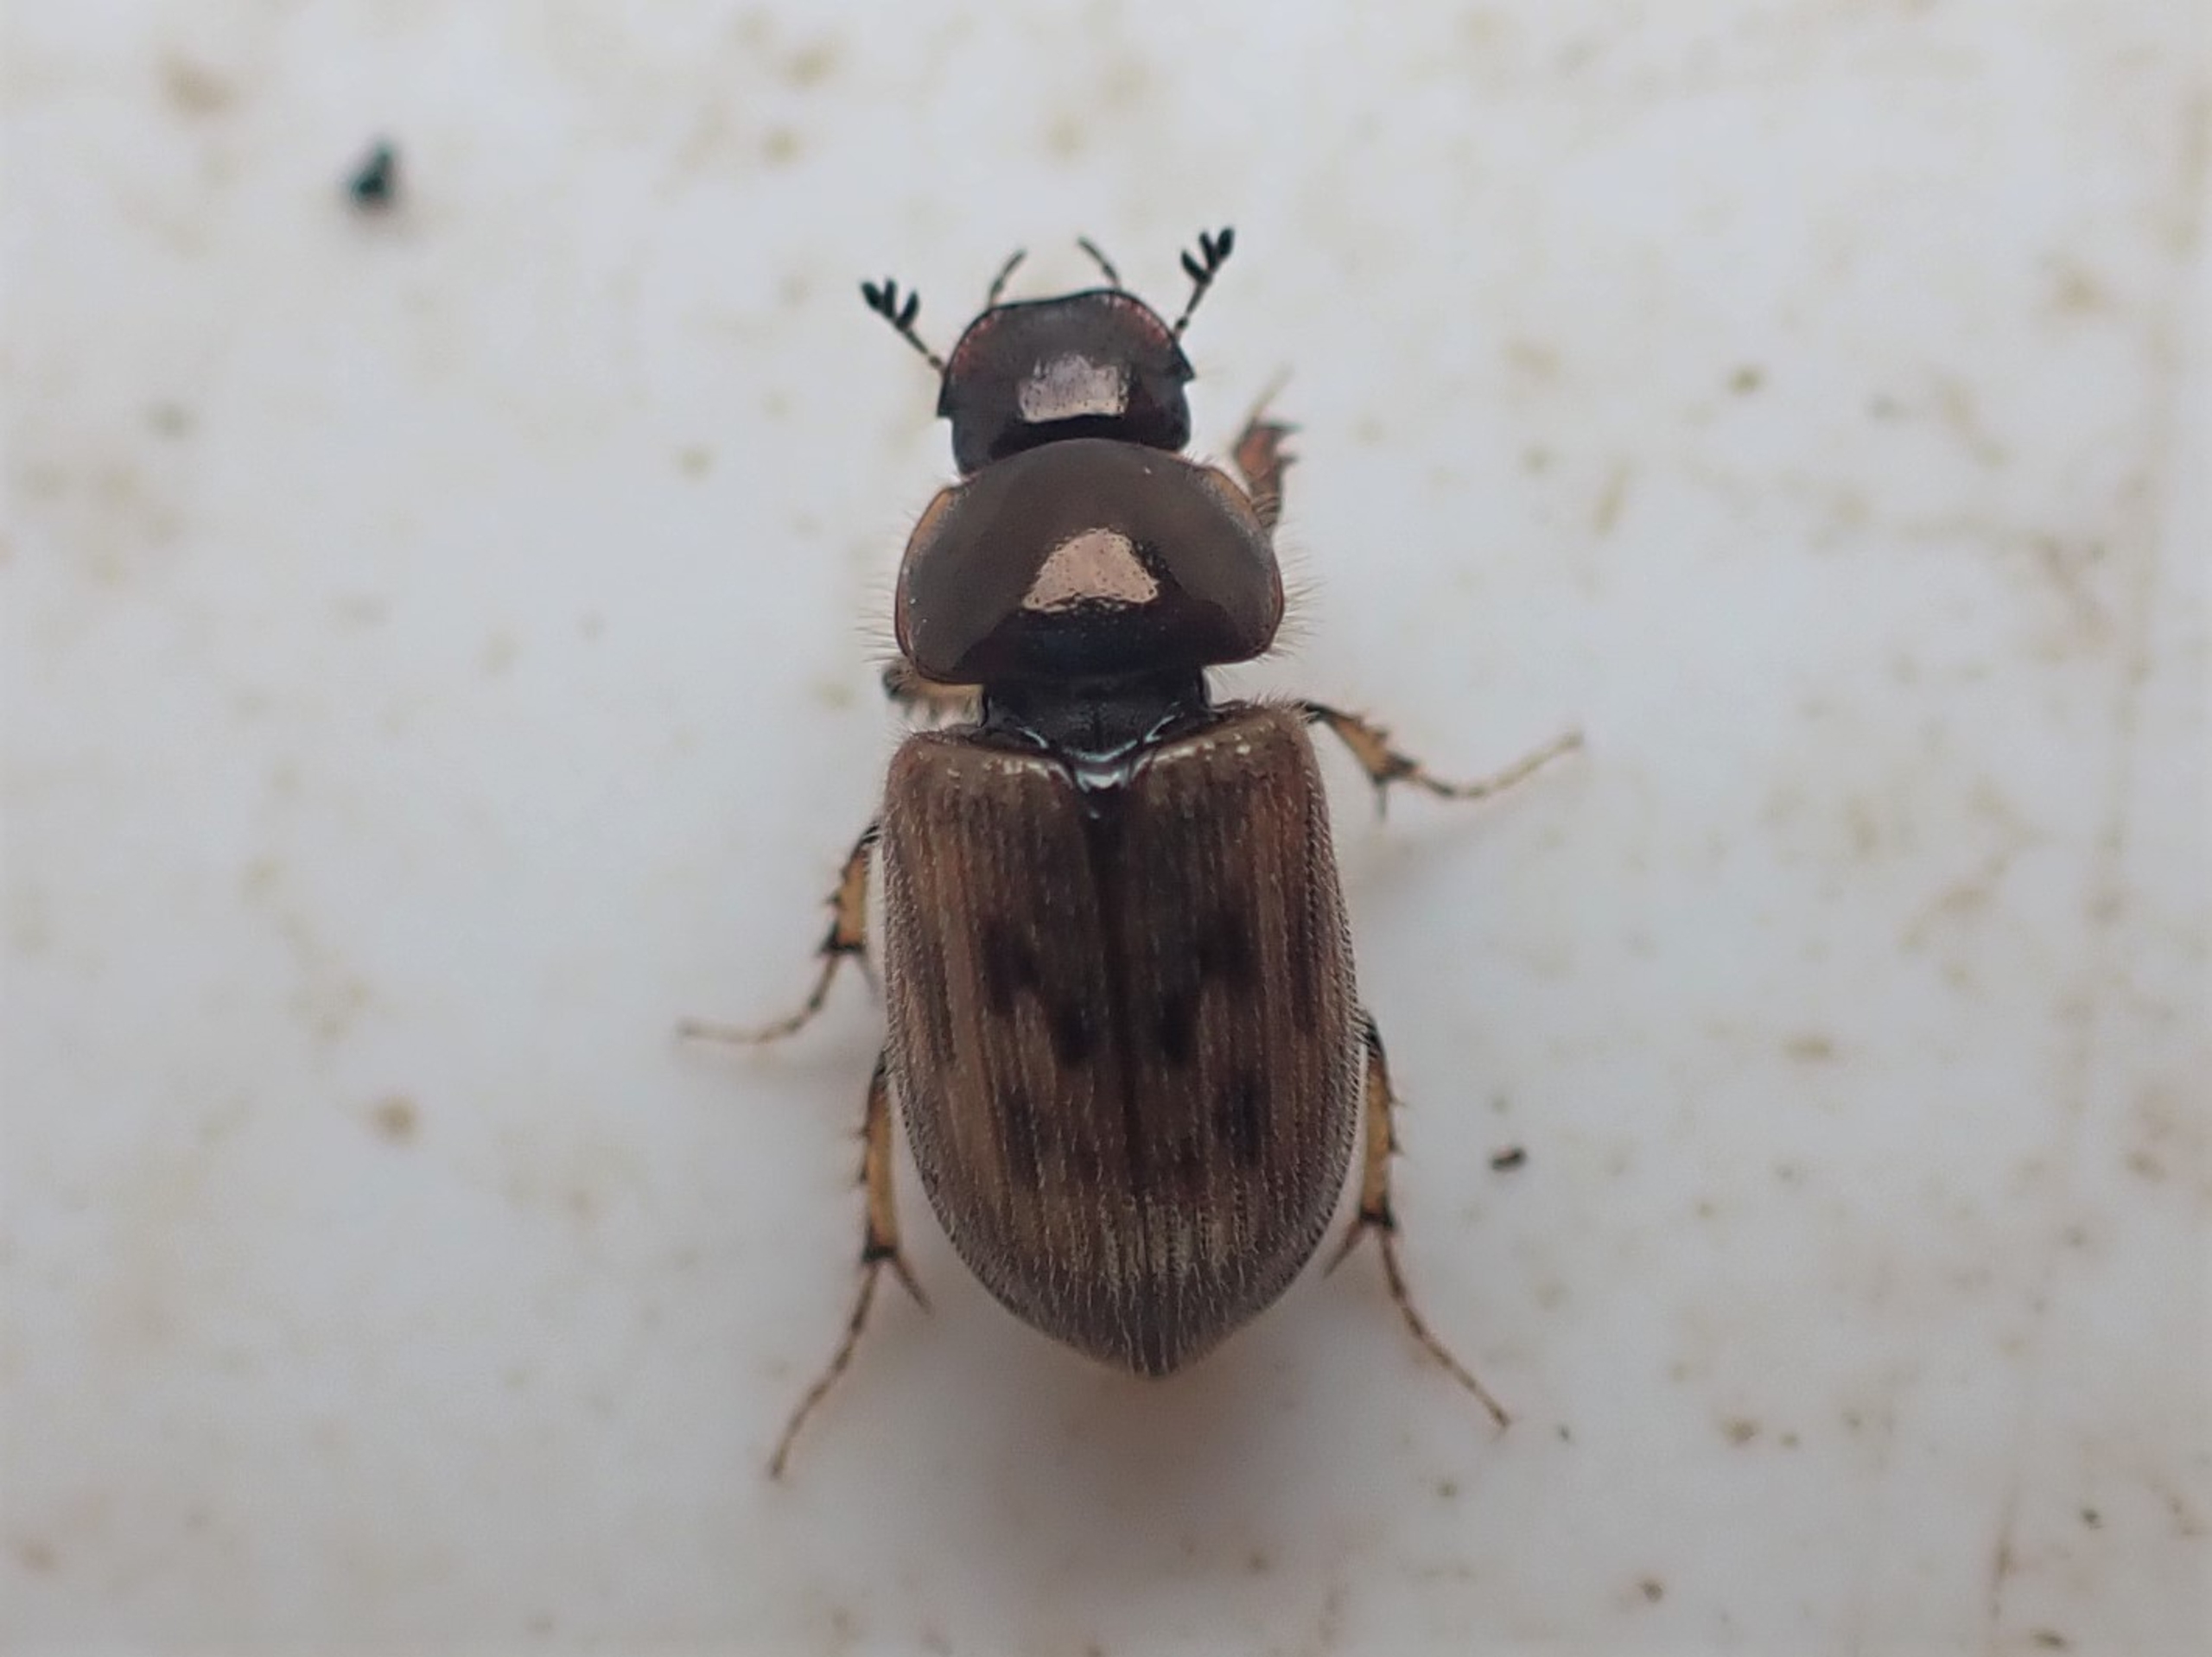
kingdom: Animalia
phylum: Arthropoda
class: Insecta
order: Coleoptera
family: Scarabaeidae
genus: Nimbus
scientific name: Nimbus contaminatus
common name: Sandhåret møgbille
